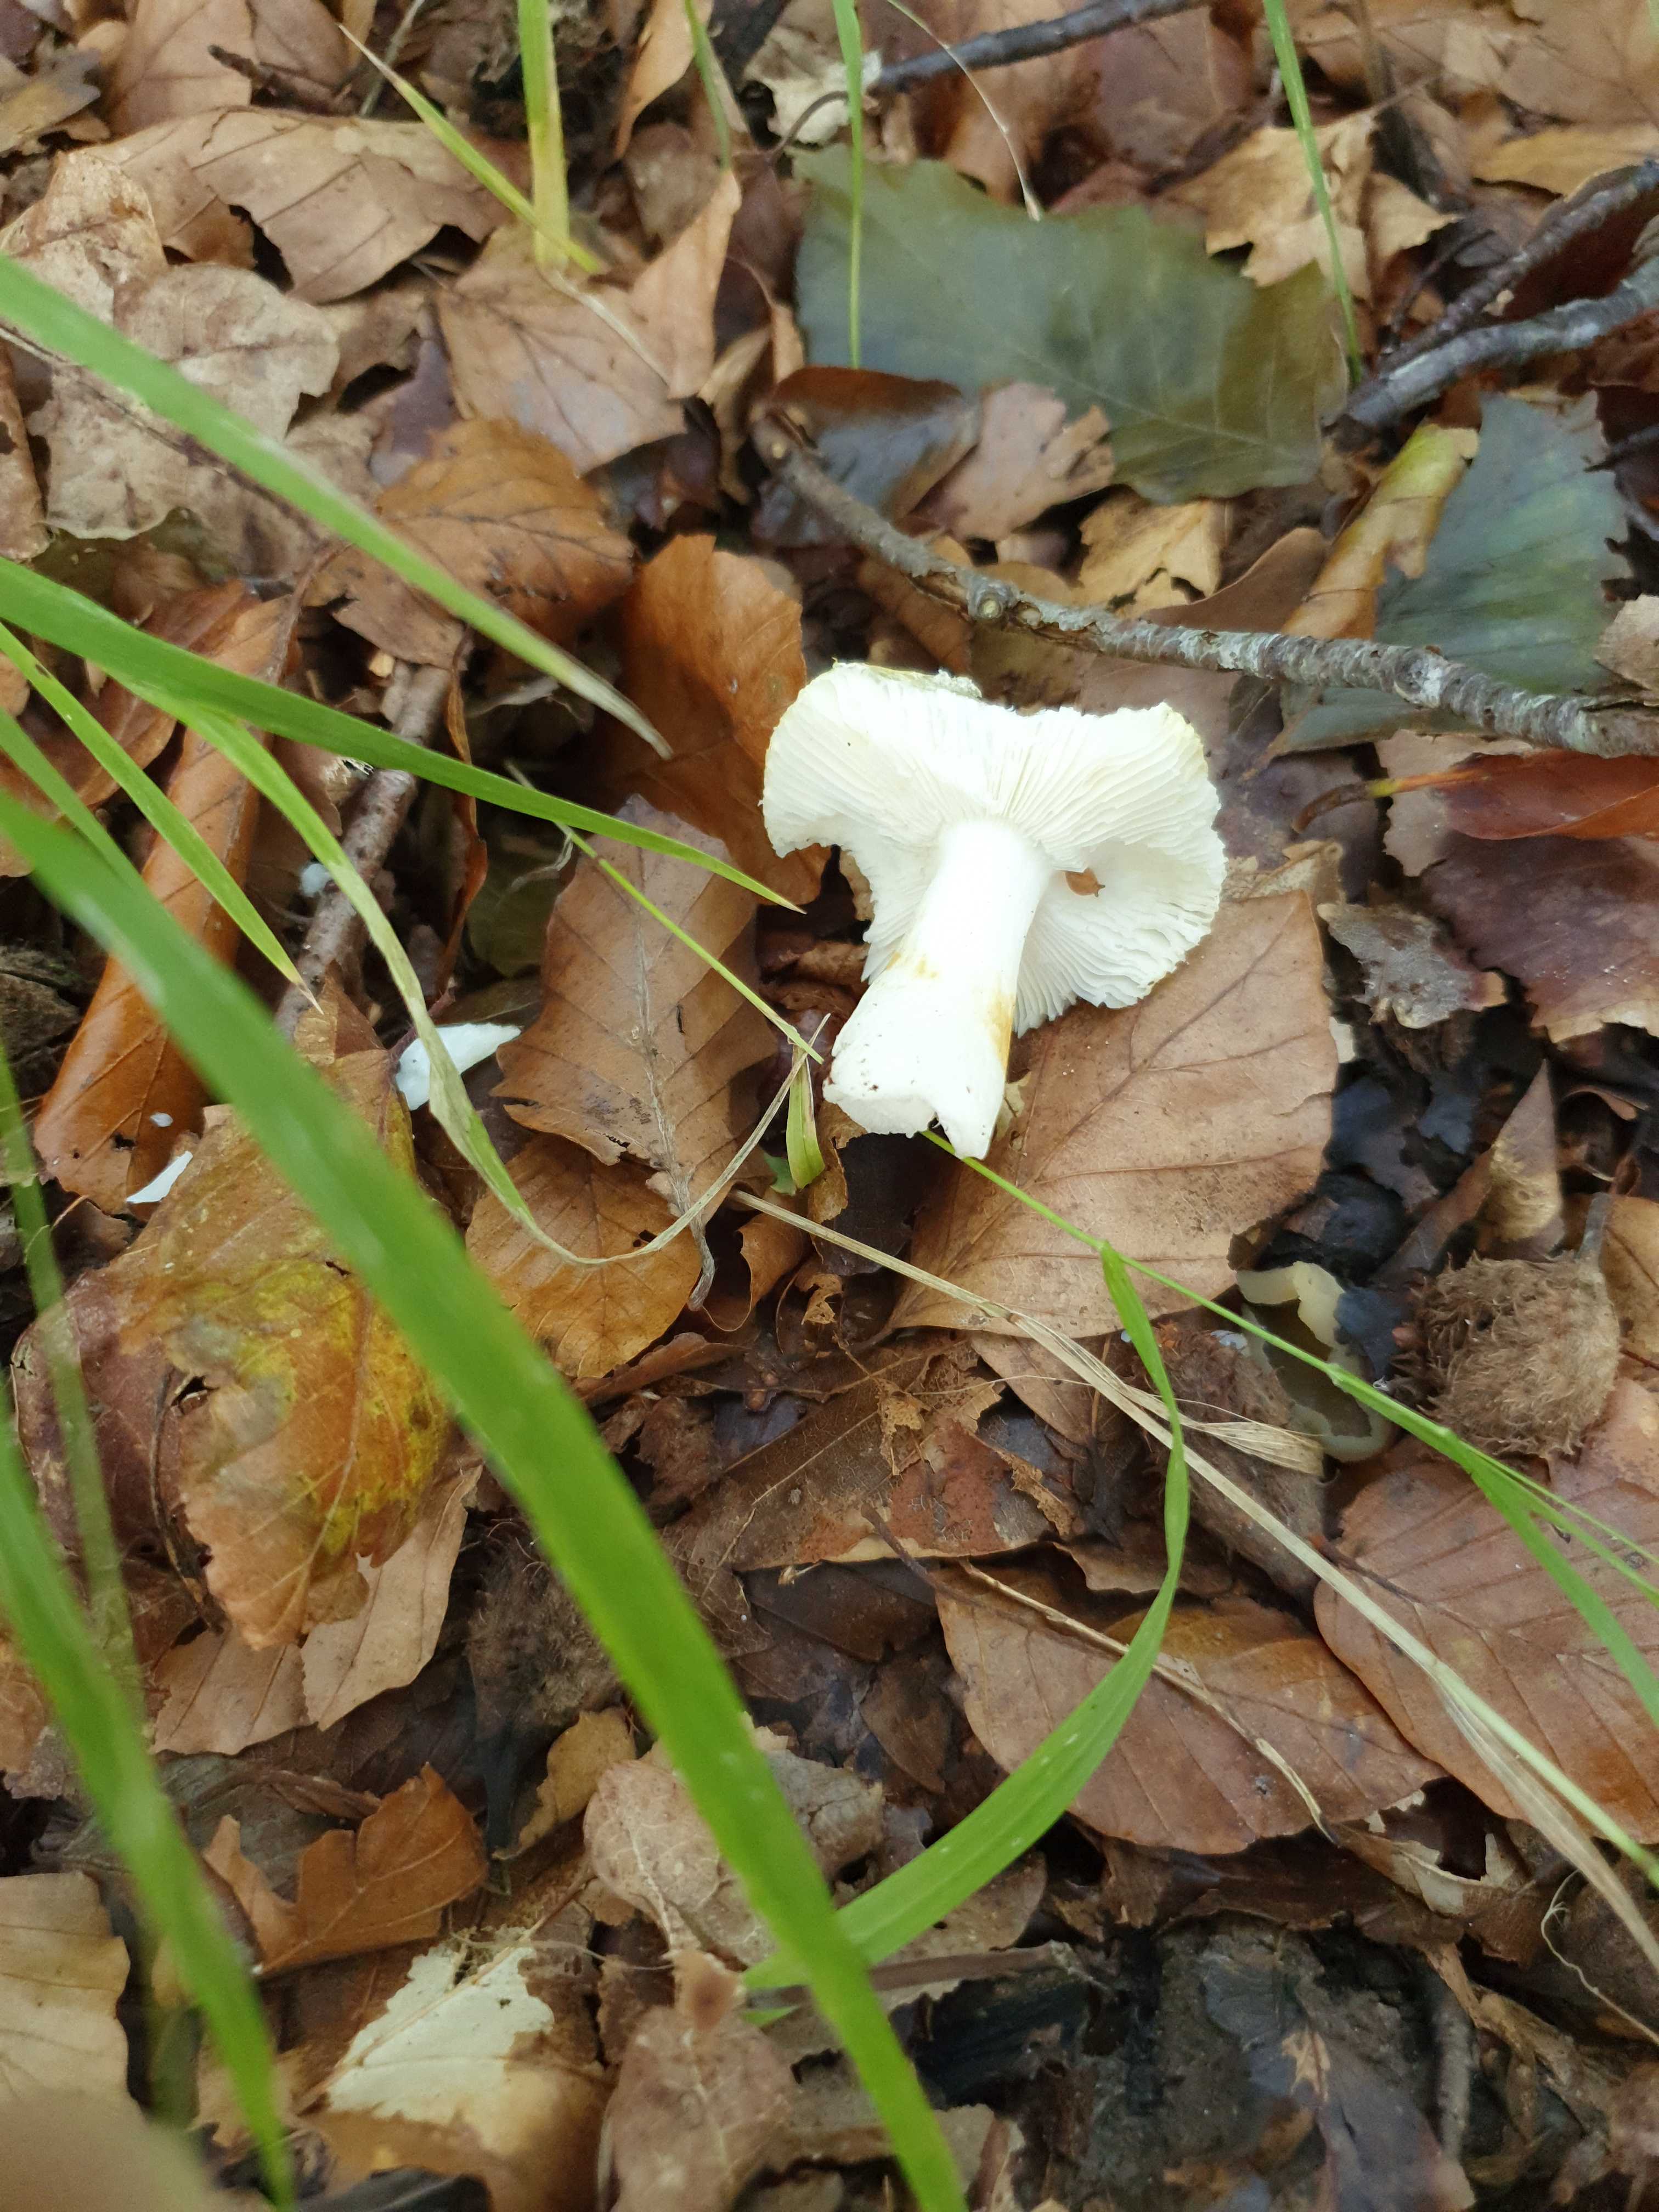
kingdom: Fungi
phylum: Basidiomycota
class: Agaricomycetes
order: Russulales
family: Russulaceae
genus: Russula
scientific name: Russula solaris
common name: sol-skørhat
